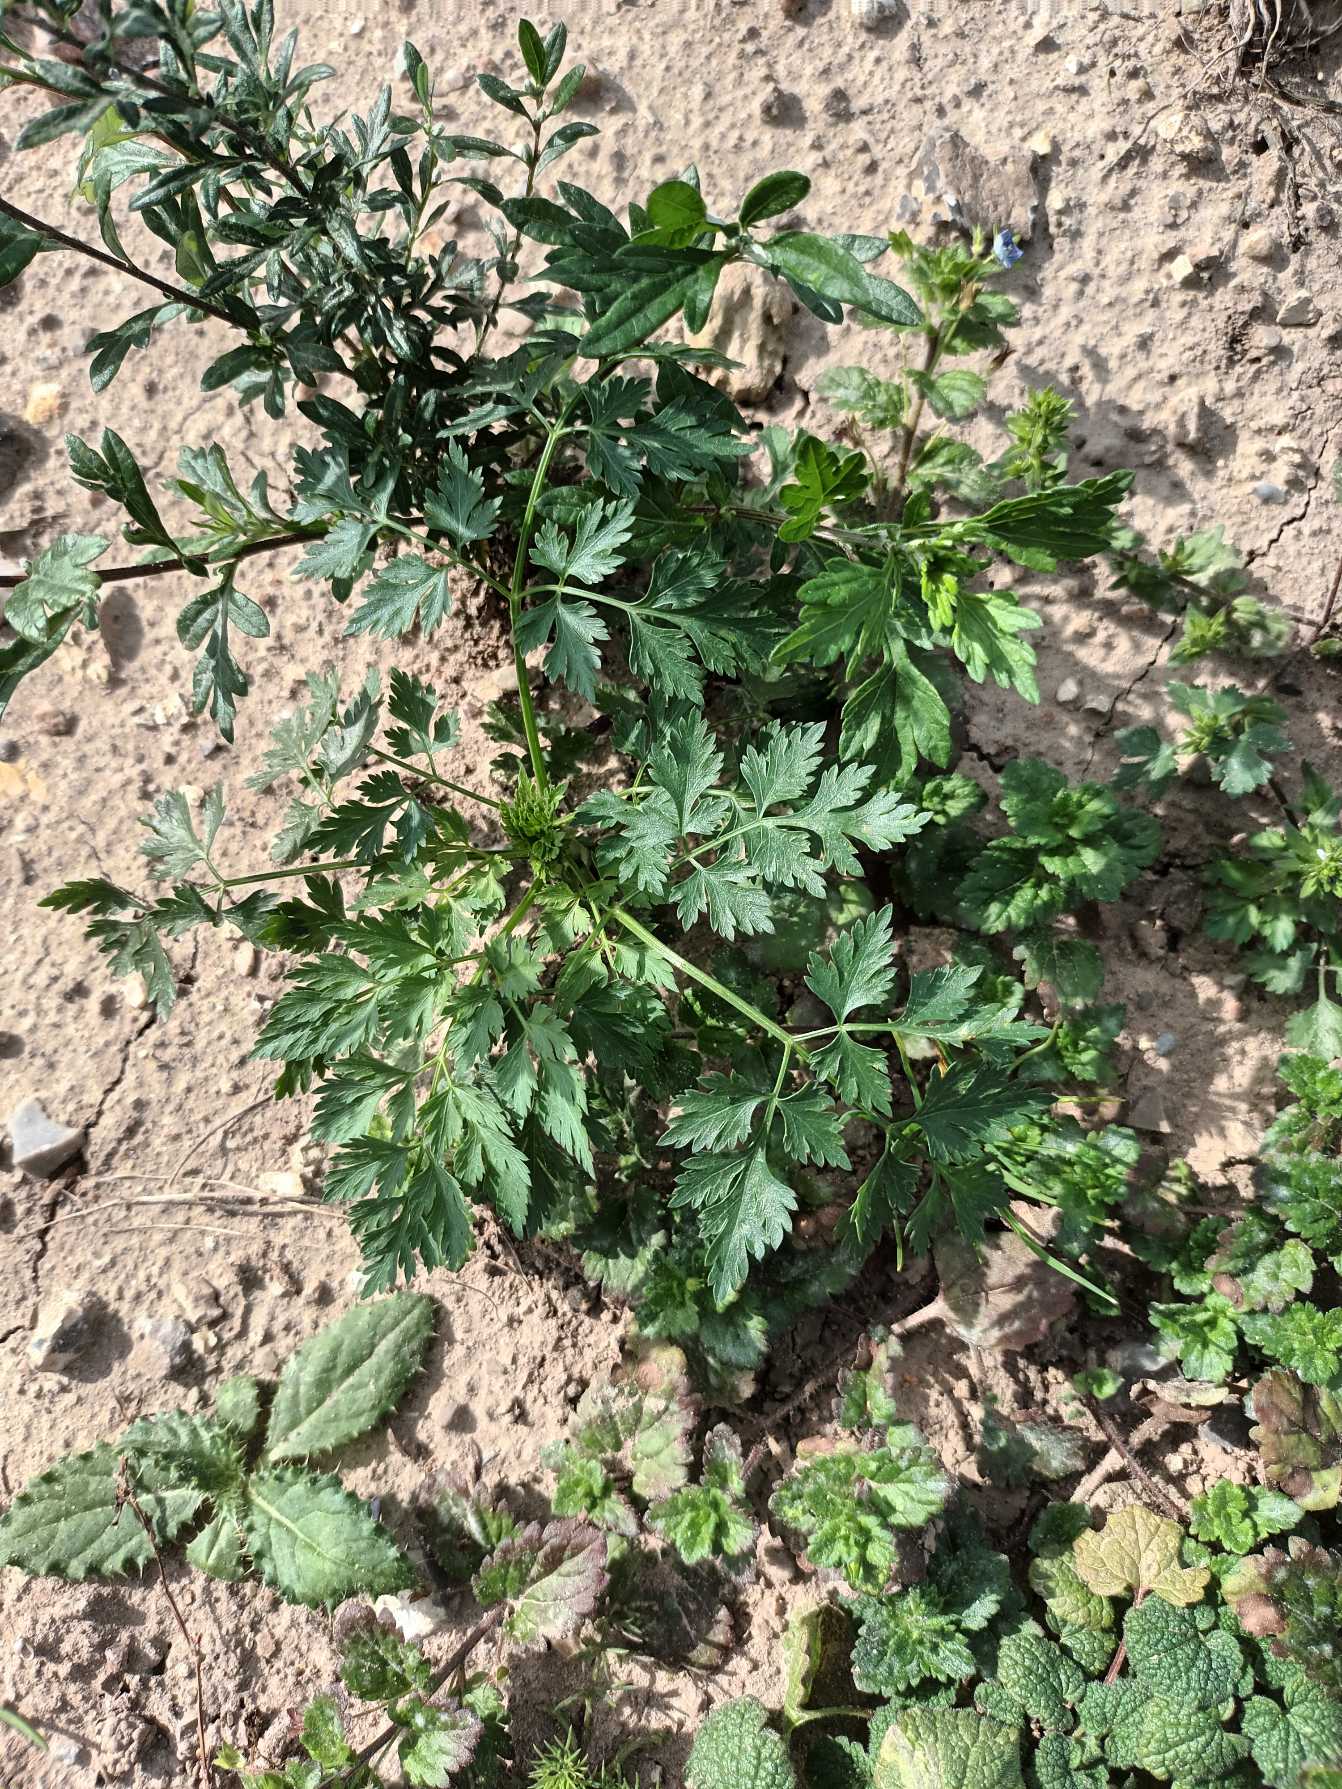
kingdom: Plantae
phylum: Tracheophyta
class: Magnoliopsida
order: Apiales
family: Apiaceae
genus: Aethusa
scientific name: Aethusa cynapium
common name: Hundepersille
